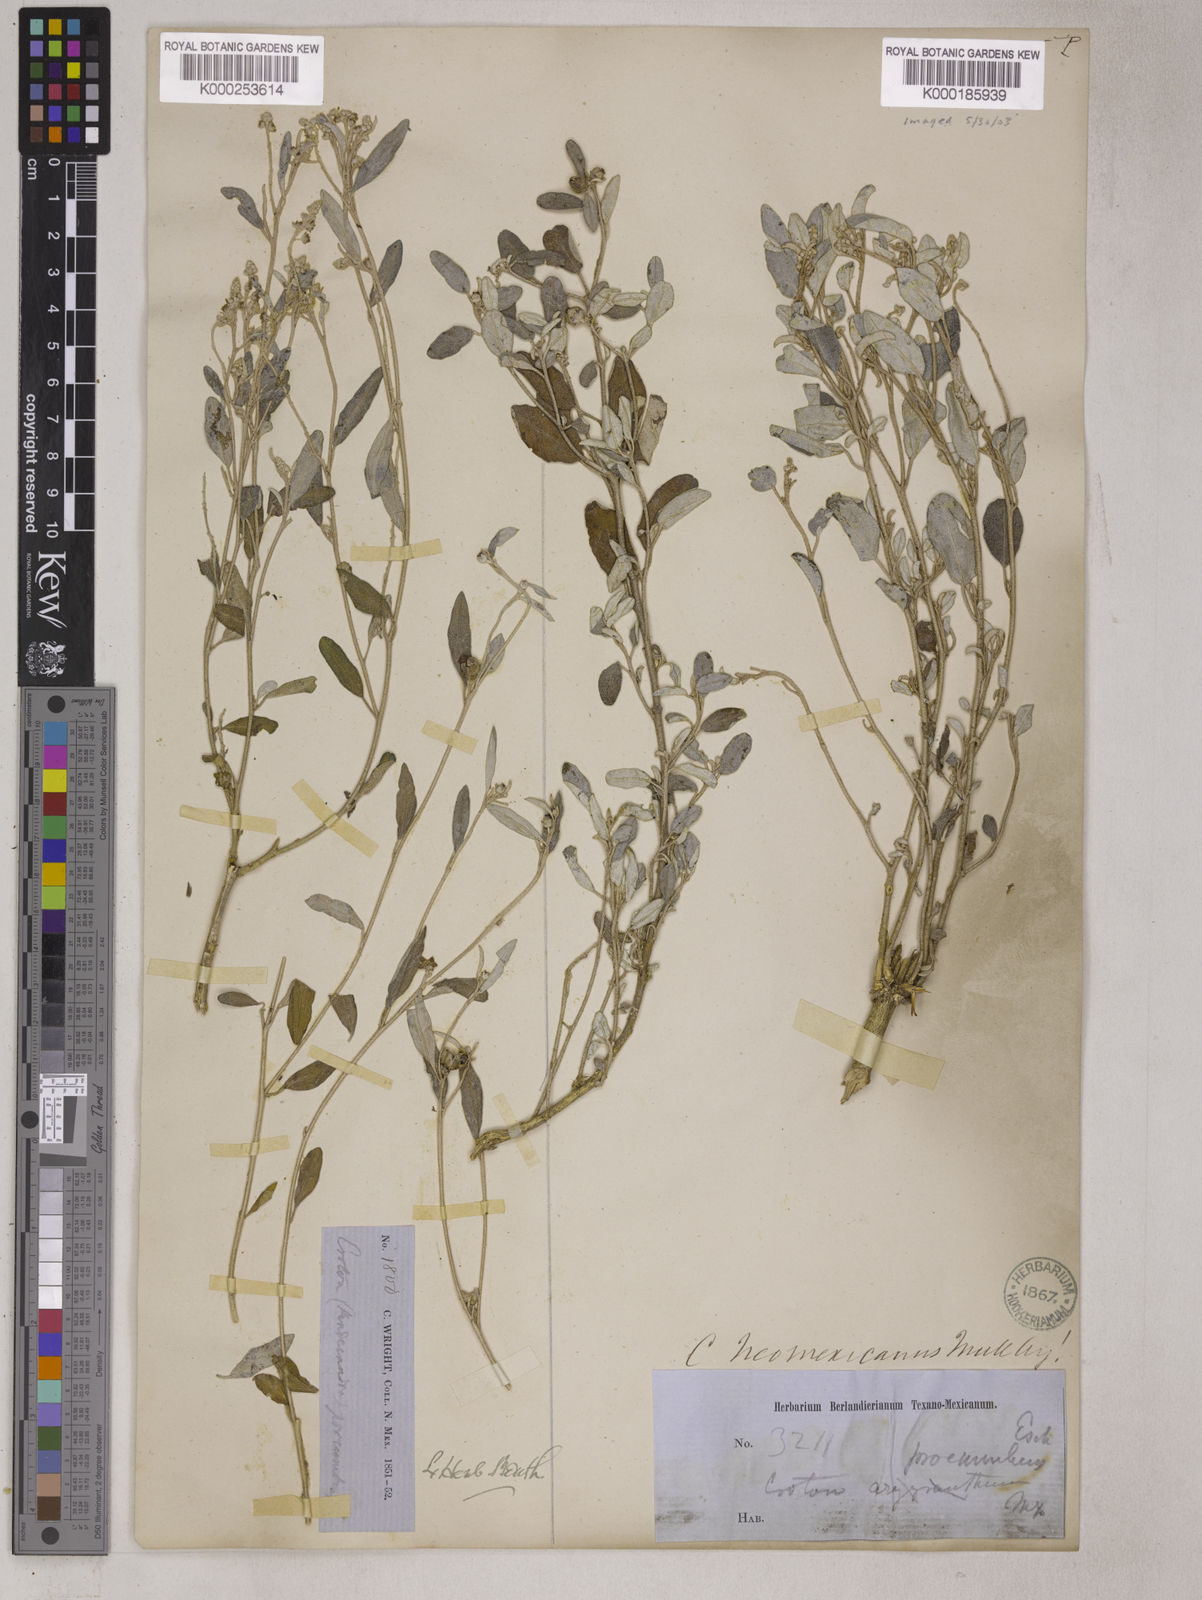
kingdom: Plantae
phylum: Tracheophyta
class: Magnoliopsida
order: Malpighiales
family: Euphorbiaceae
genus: Croton
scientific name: Croton dioicus
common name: Grassland croton
